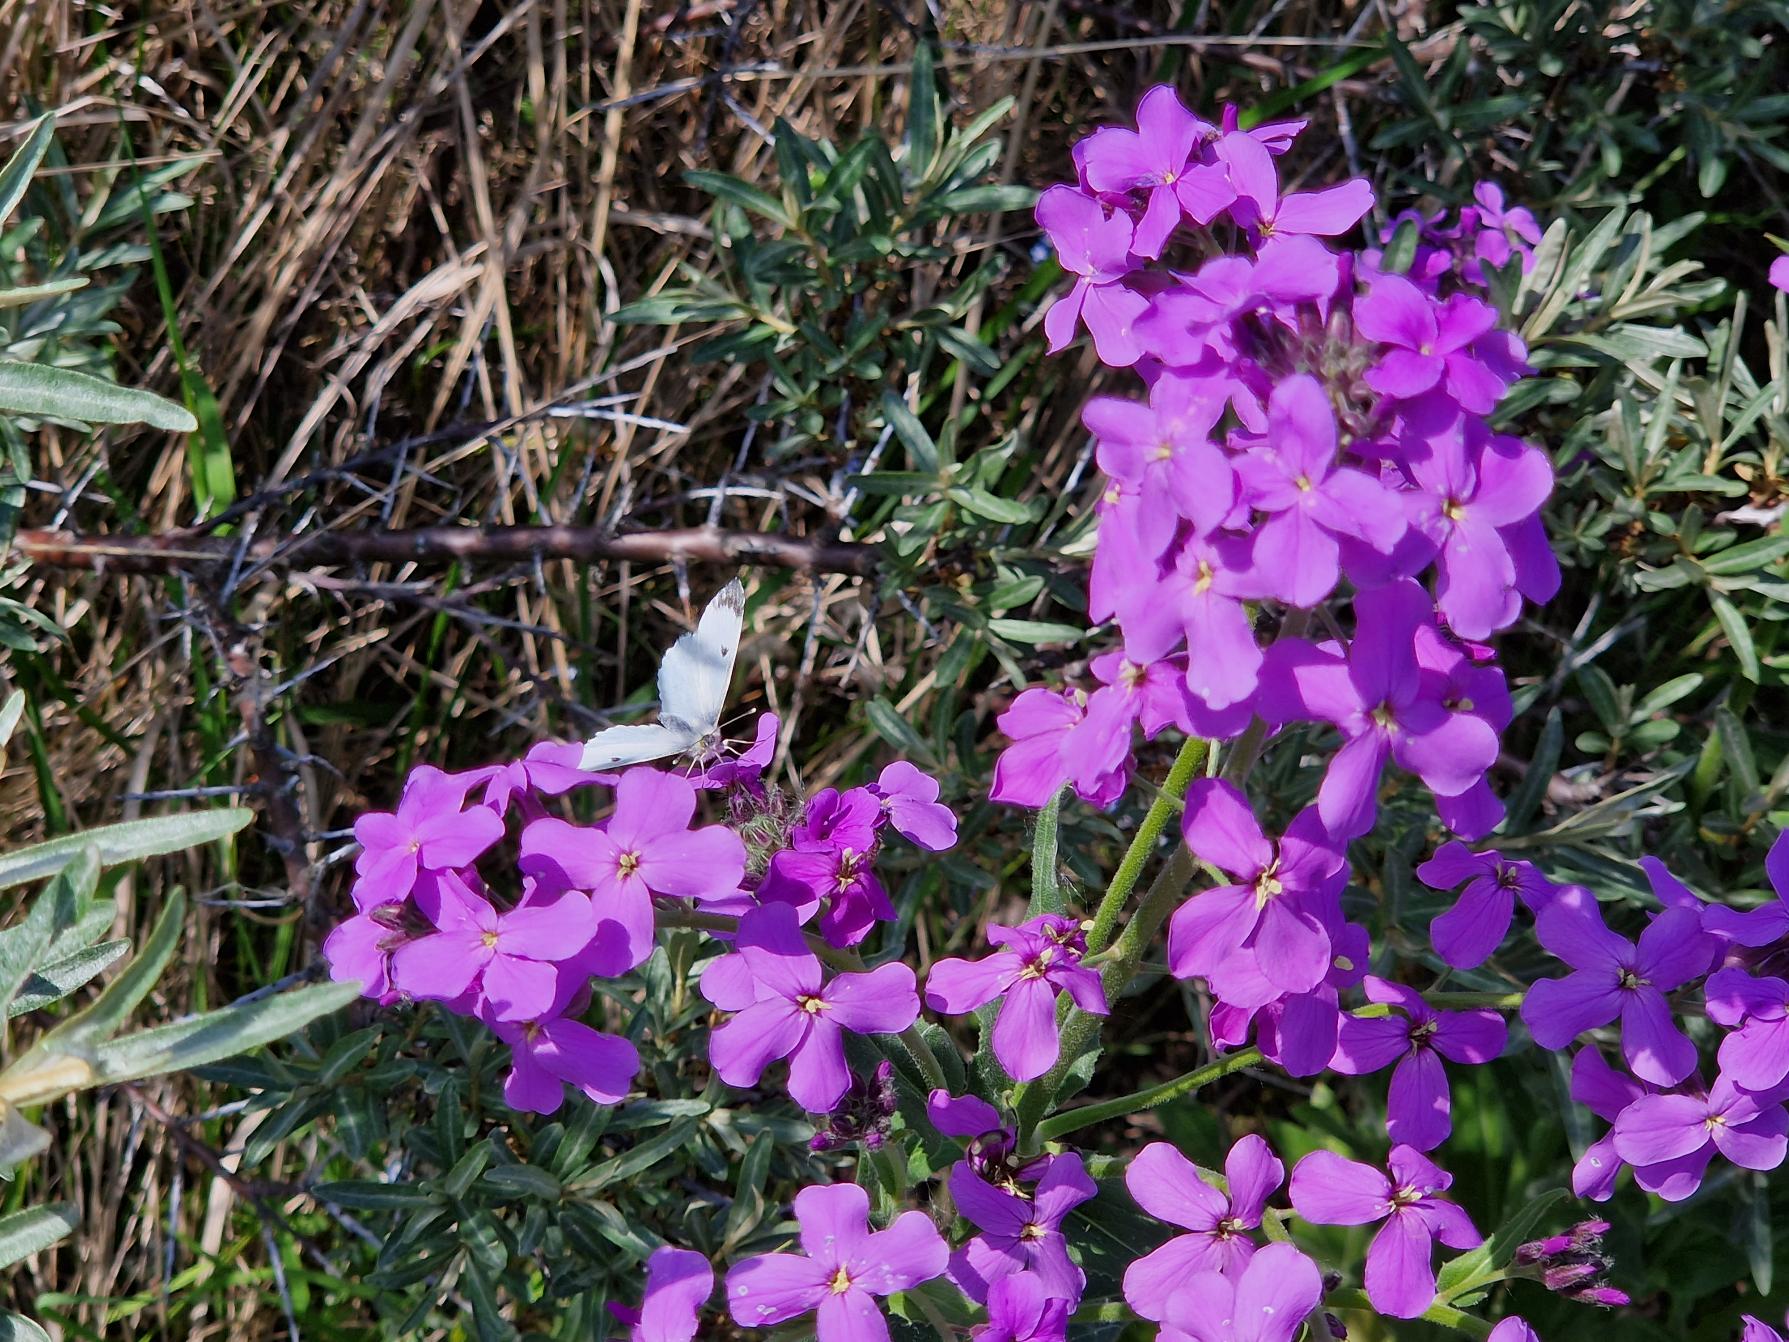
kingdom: Animalia
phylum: Arthropoda
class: Insecta
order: Lepidoptera
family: Pieridae
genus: Anthocharis
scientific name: Anthocharis cardamines
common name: Aurora
